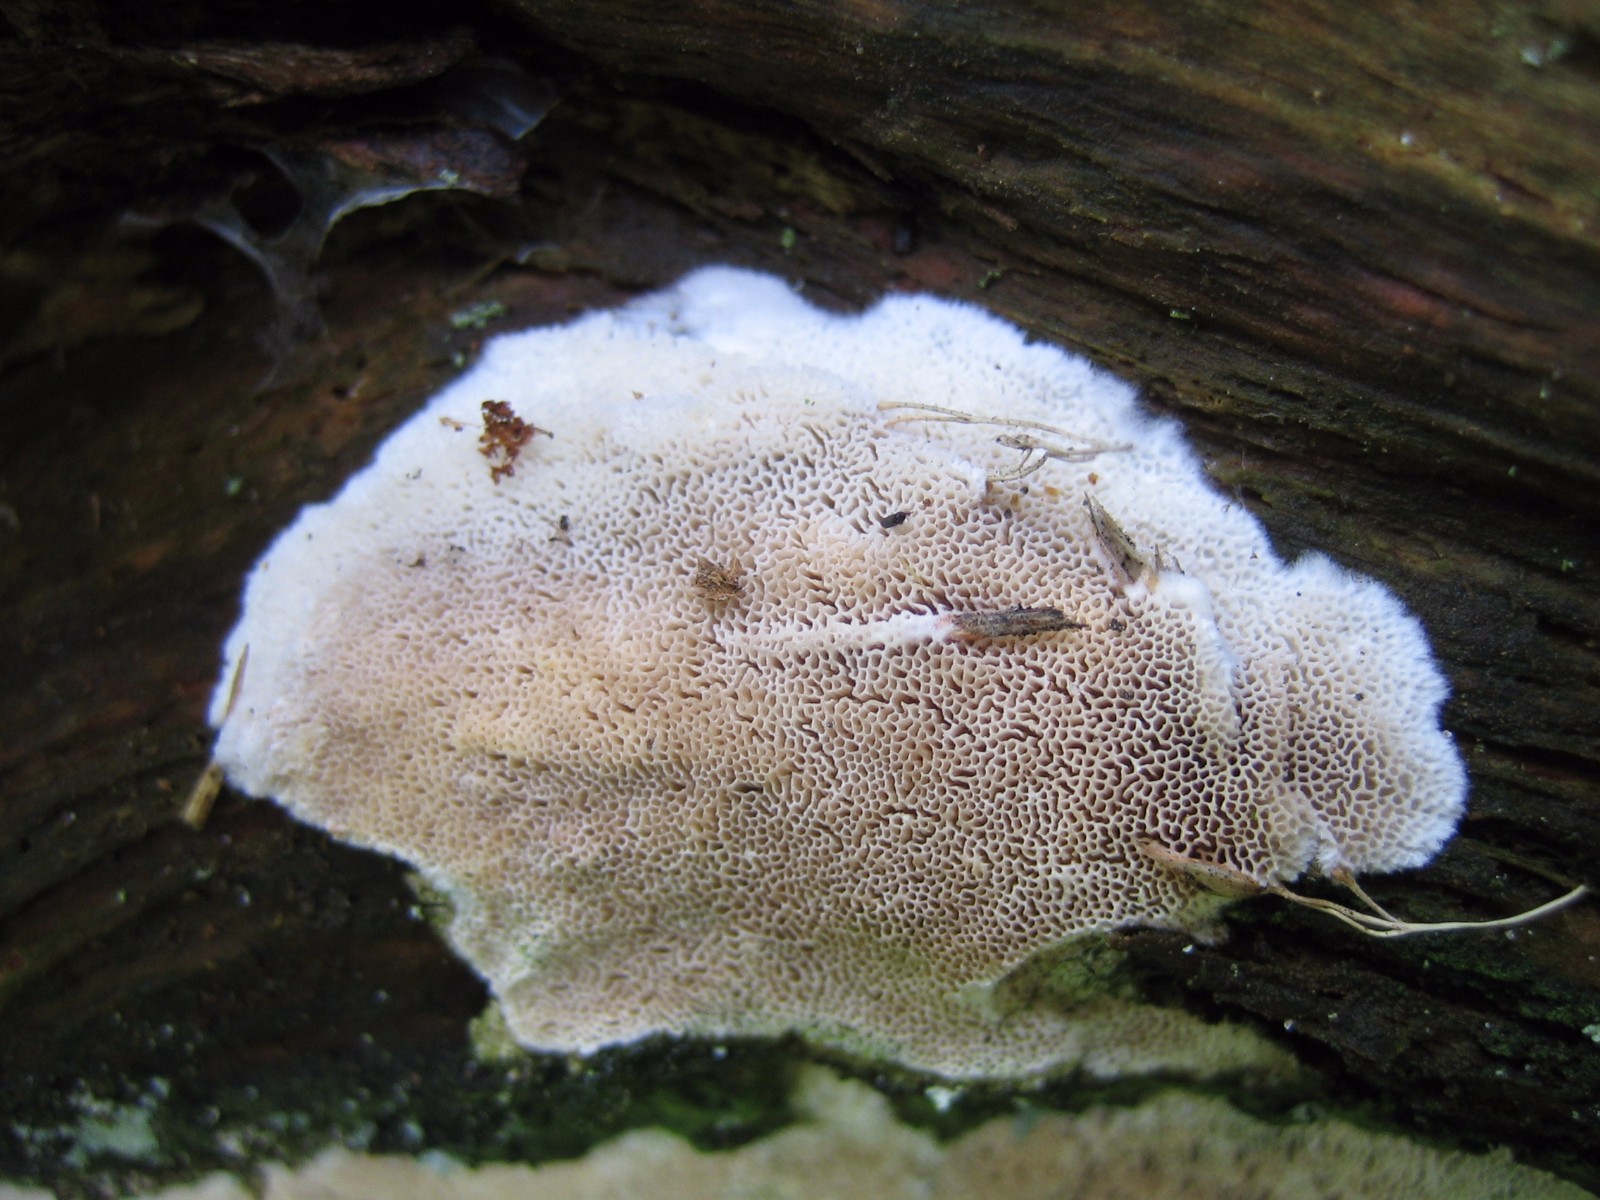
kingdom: Fungi
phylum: Basidiomycota
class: Agaricomycetes
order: Polyporales
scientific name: Polyporales
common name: poresvampordenen
